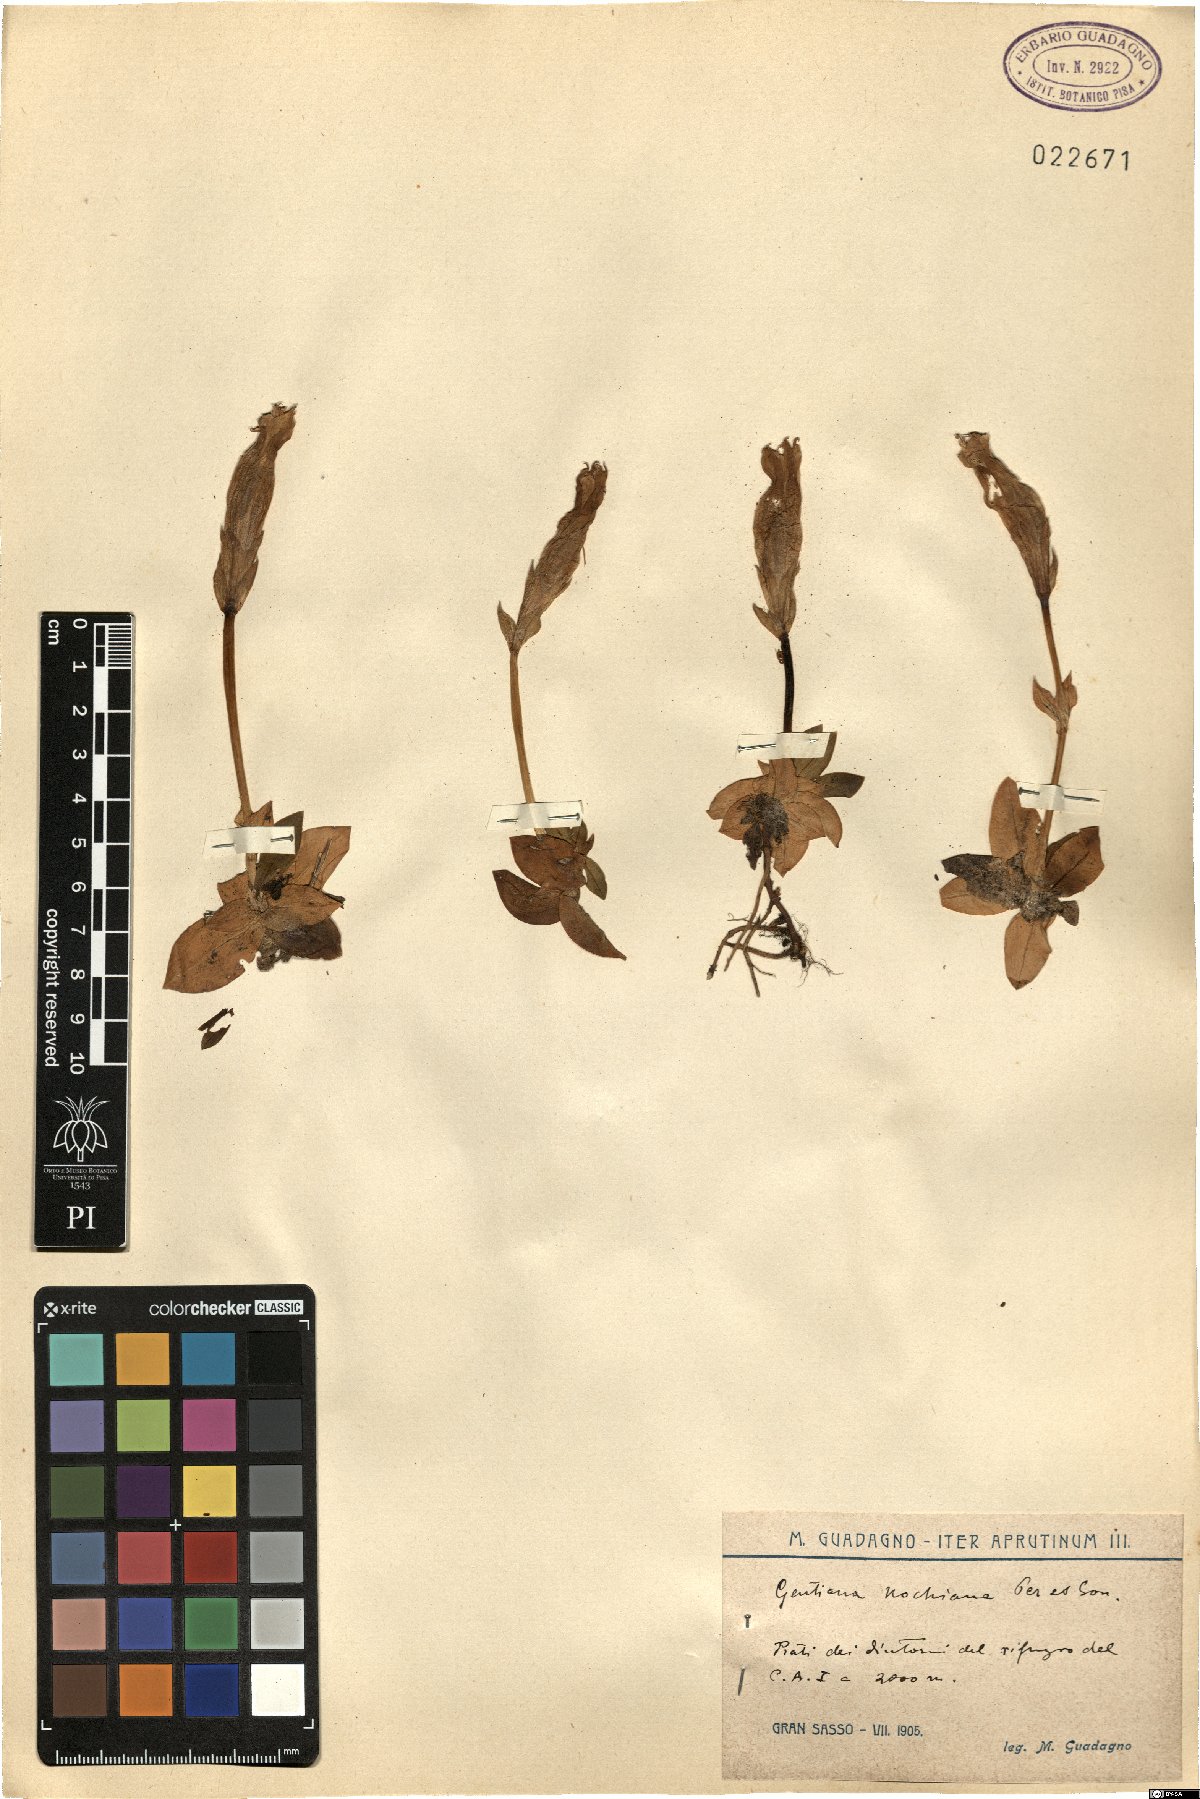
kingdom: Plantae
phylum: Tracheophyta
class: Magnoliopsida
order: Gentianales
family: Gentianaceae
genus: Gentiana
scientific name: Gentiana acaulis
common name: Trumpet gentian
